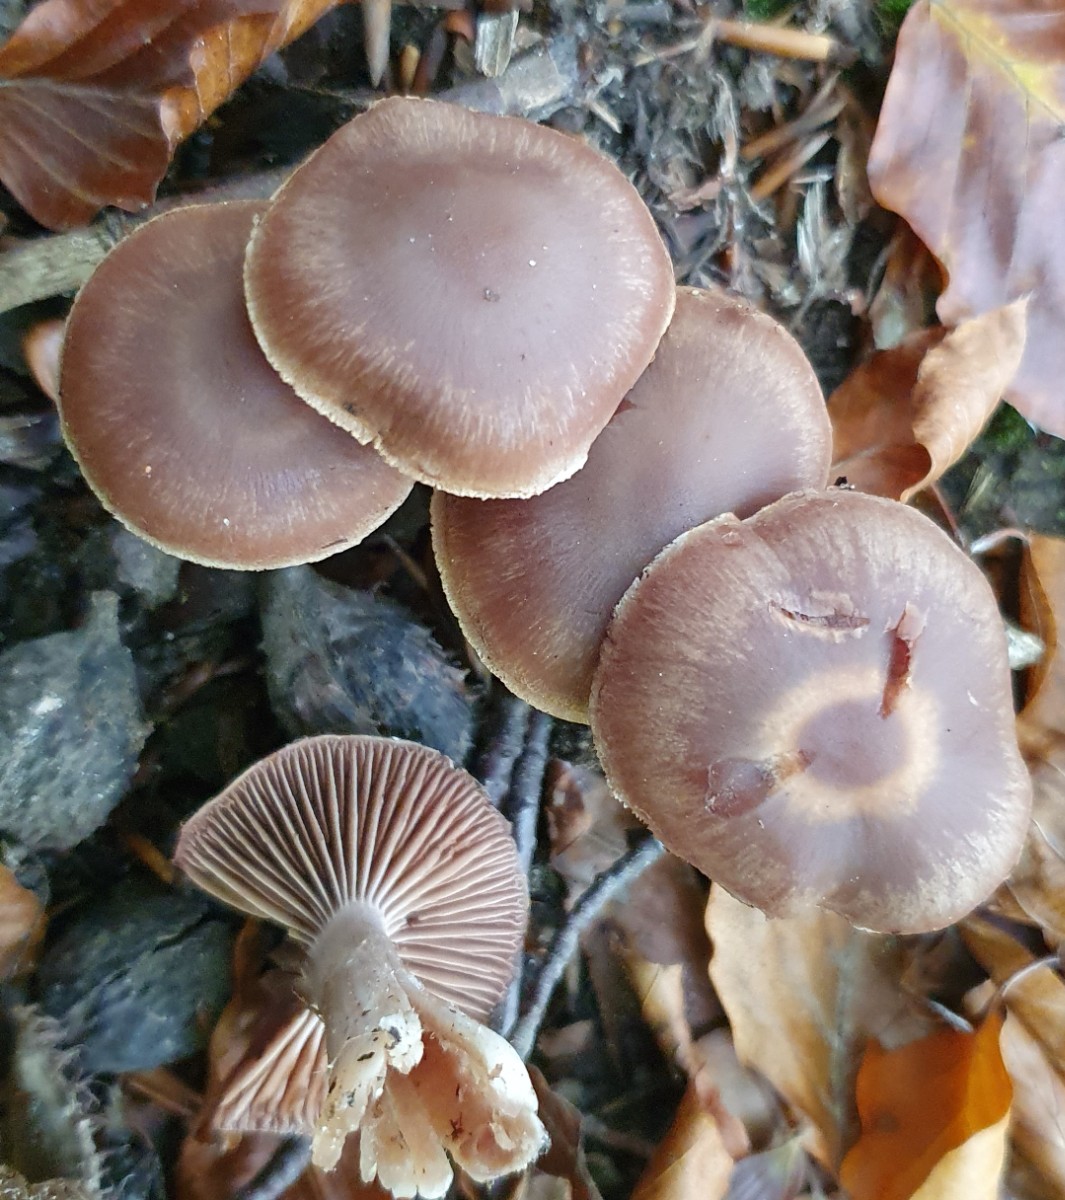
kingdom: Fungi
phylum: Basidiomycota
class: Agaricomycetes
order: Agaricales
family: Cortinariaceae
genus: Cortinarius
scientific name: Cortinarius
